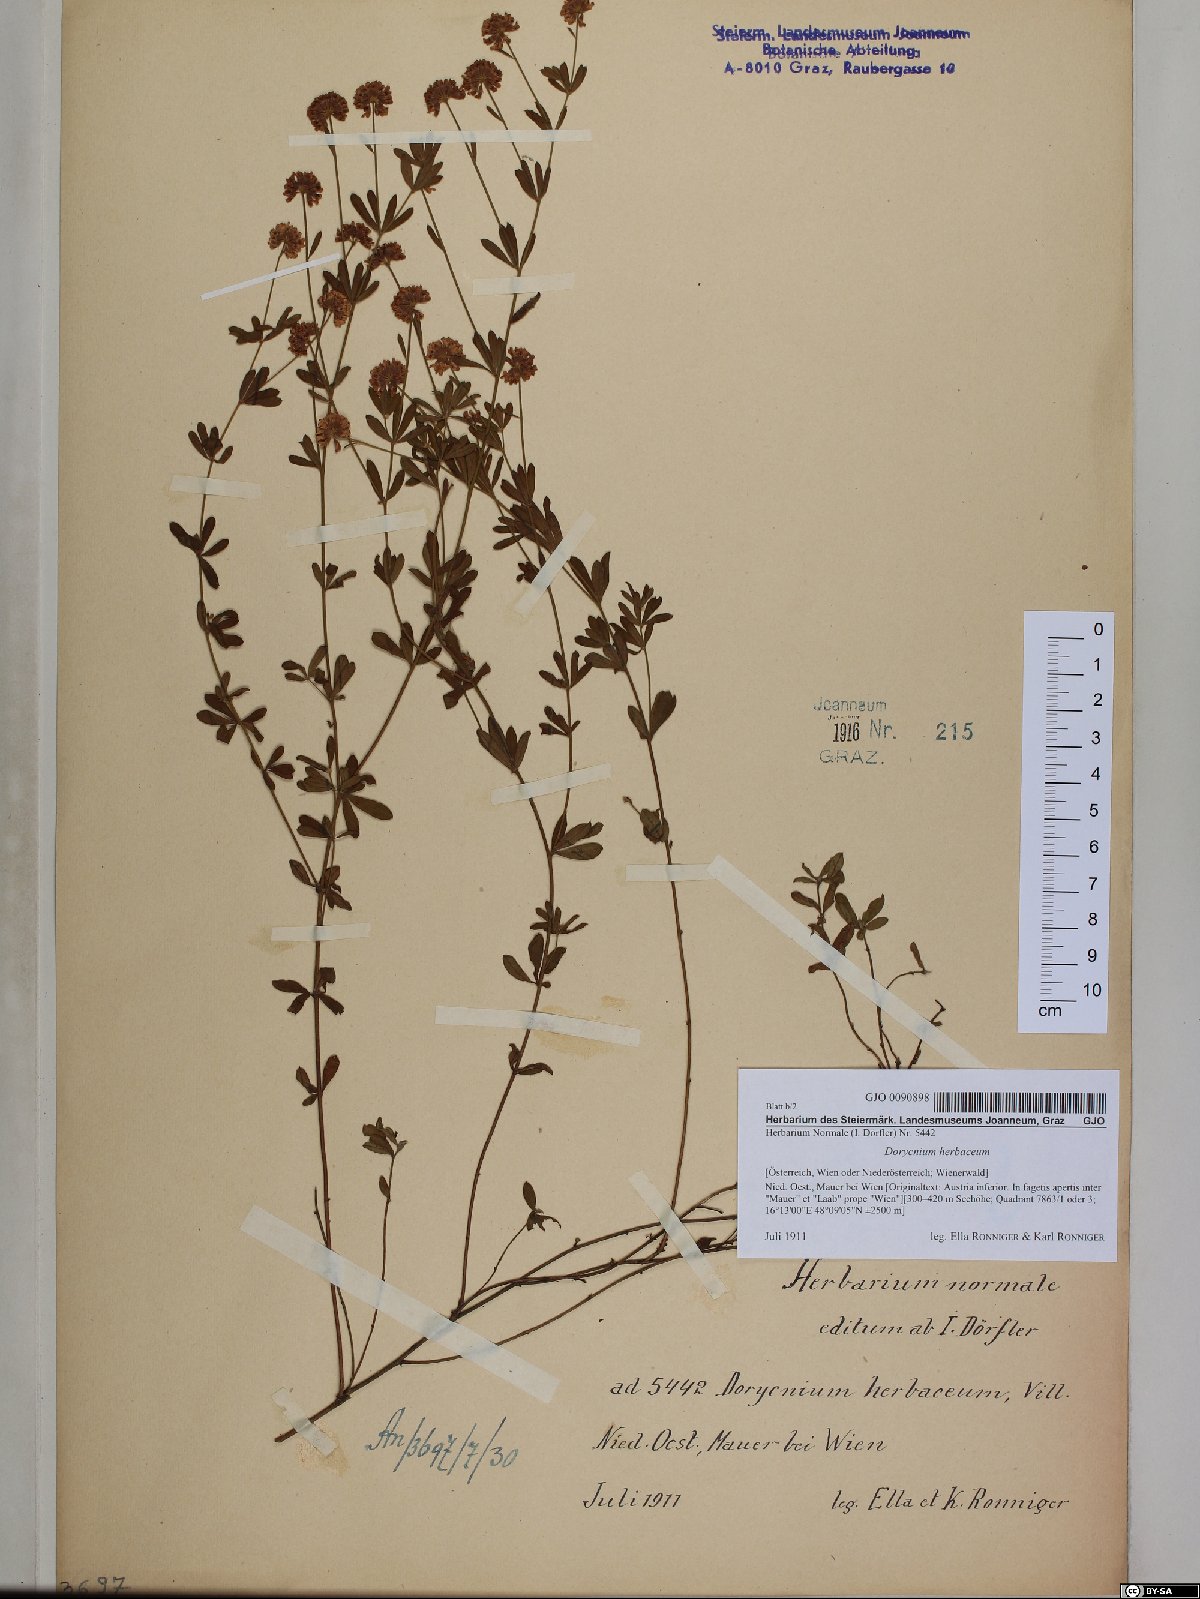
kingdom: Plantae
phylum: Tracheophyta
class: Magnoliopsida
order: Fabales
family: Fabaceae
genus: Lotus
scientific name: Lotus herbaceus
